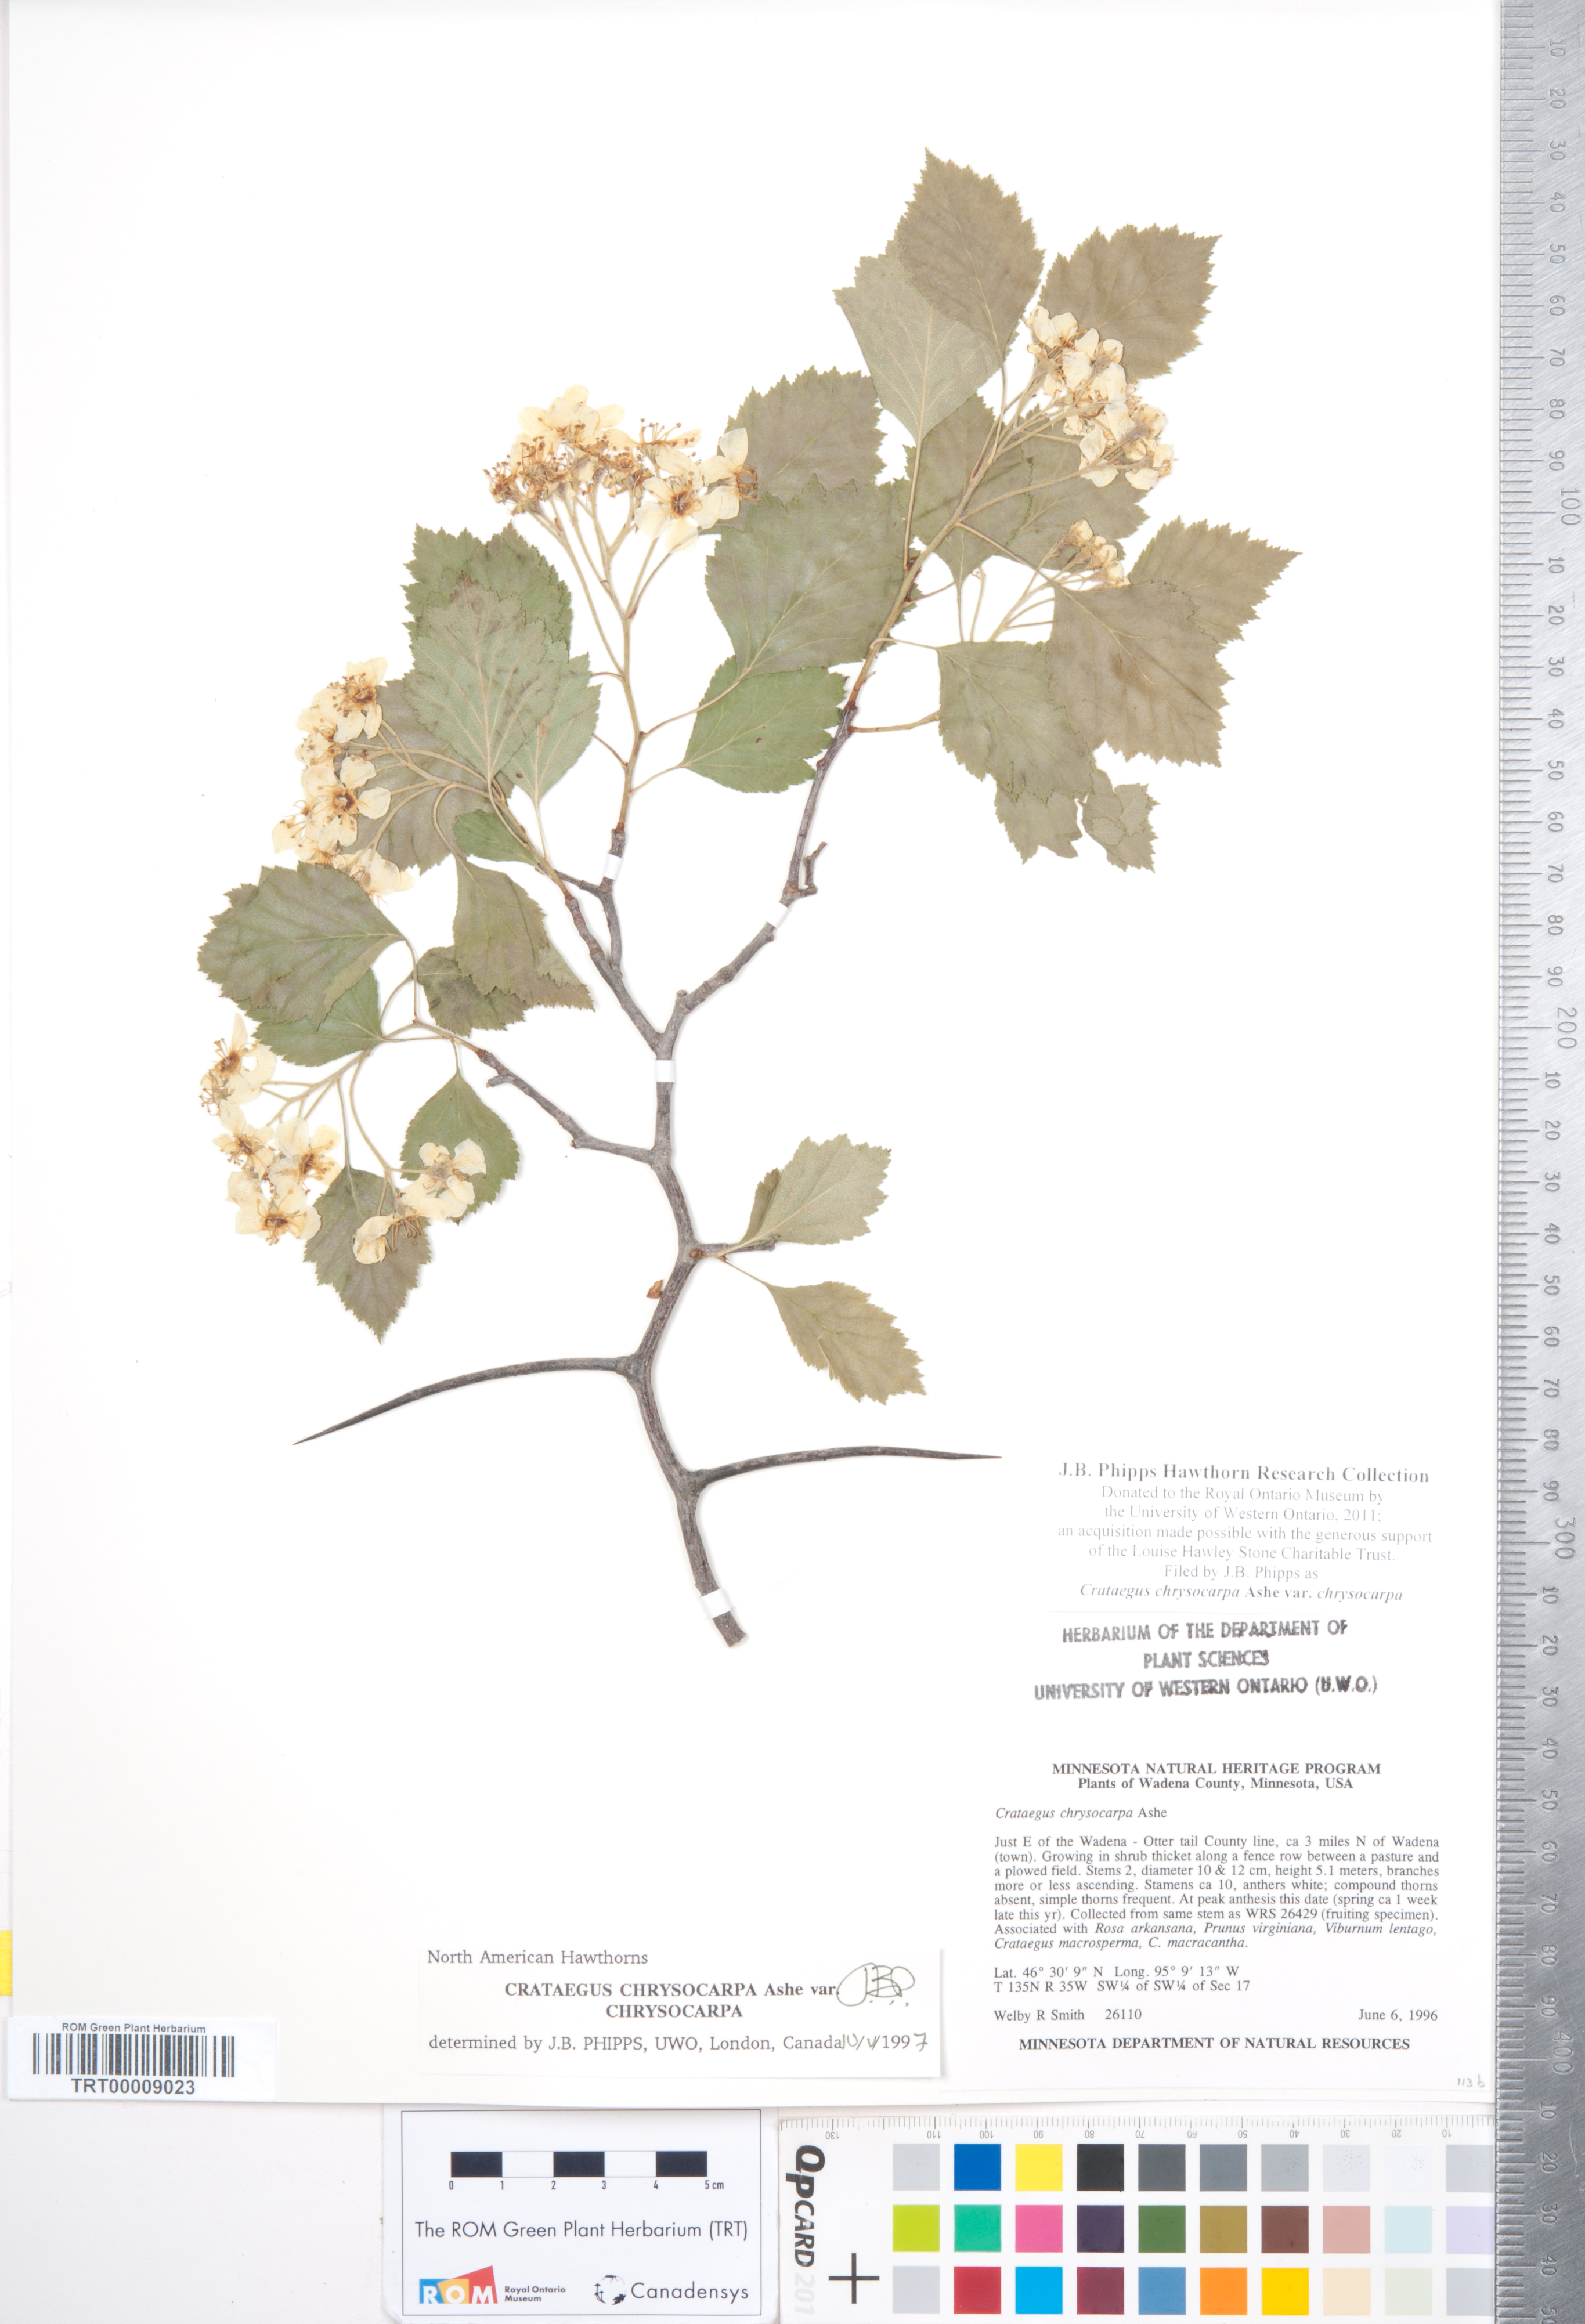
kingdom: Plantae
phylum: Tracheophyta
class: Magnoliopsida
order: Rosales
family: Rosaceae
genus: Crataegus
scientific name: Crataegus chrysocarpa
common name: Fire-berry hawthorn
